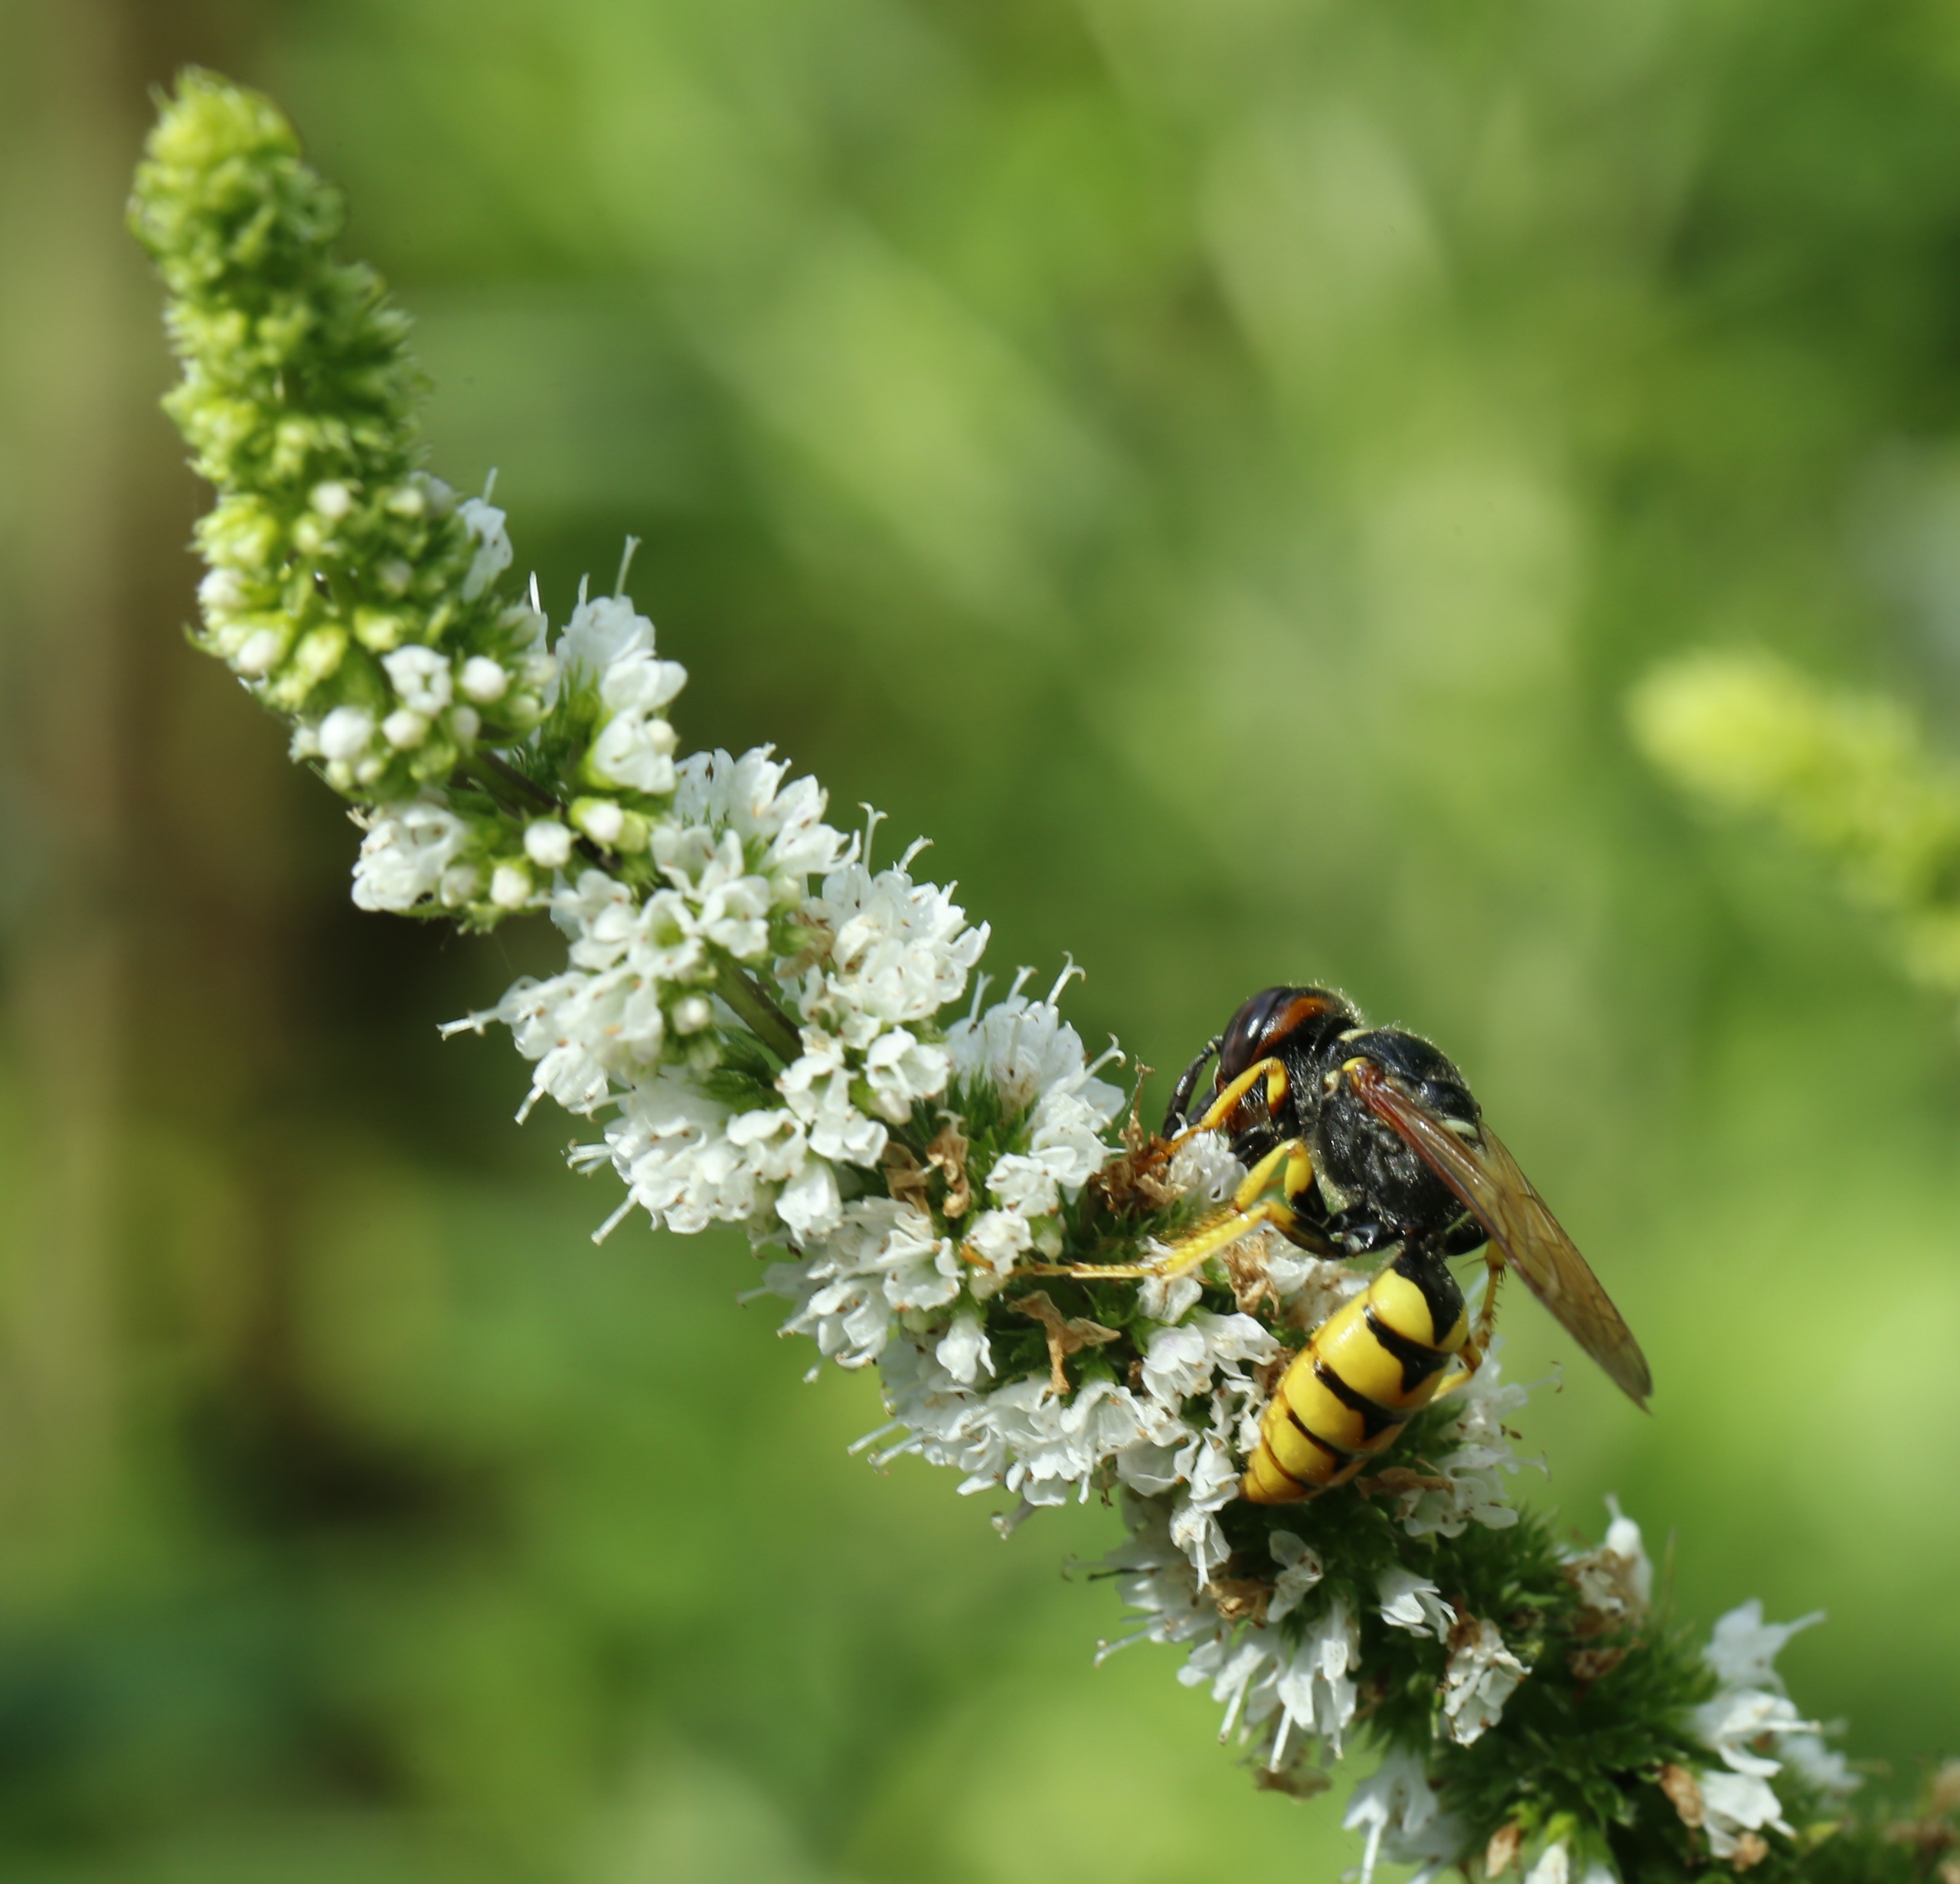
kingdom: Animalia
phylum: Arthropoda
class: Insecta
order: Hymenoptera
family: Crabronidae
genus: Philanthus
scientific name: Philanthus triangulum
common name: Biulv
